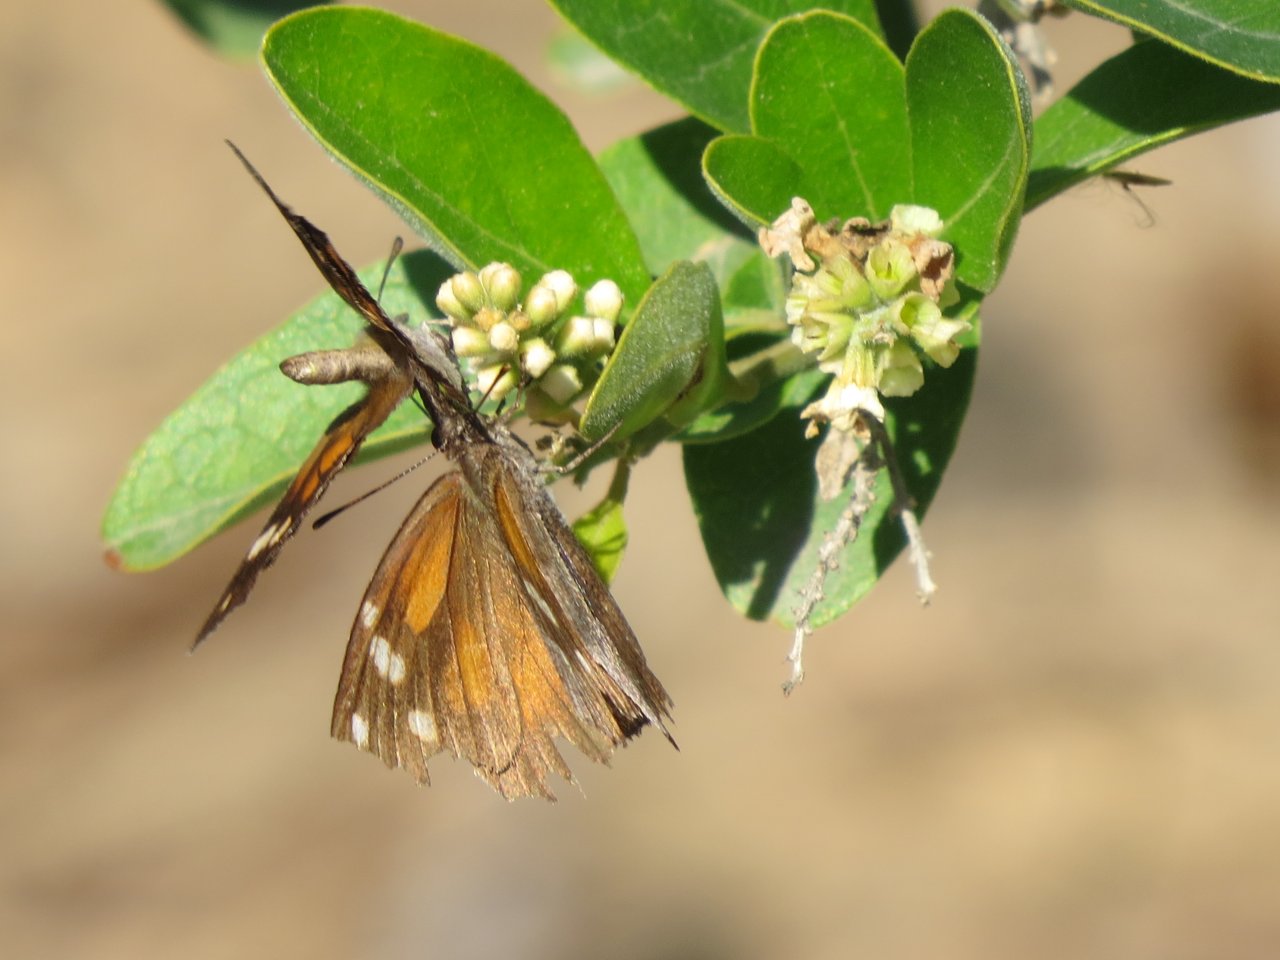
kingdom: Animalia
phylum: Arthropoda
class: Insecta
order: Lepidoptera
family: Nymphalidae
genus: Libytheana
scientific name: Libytheana carinenta
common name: American Snout
